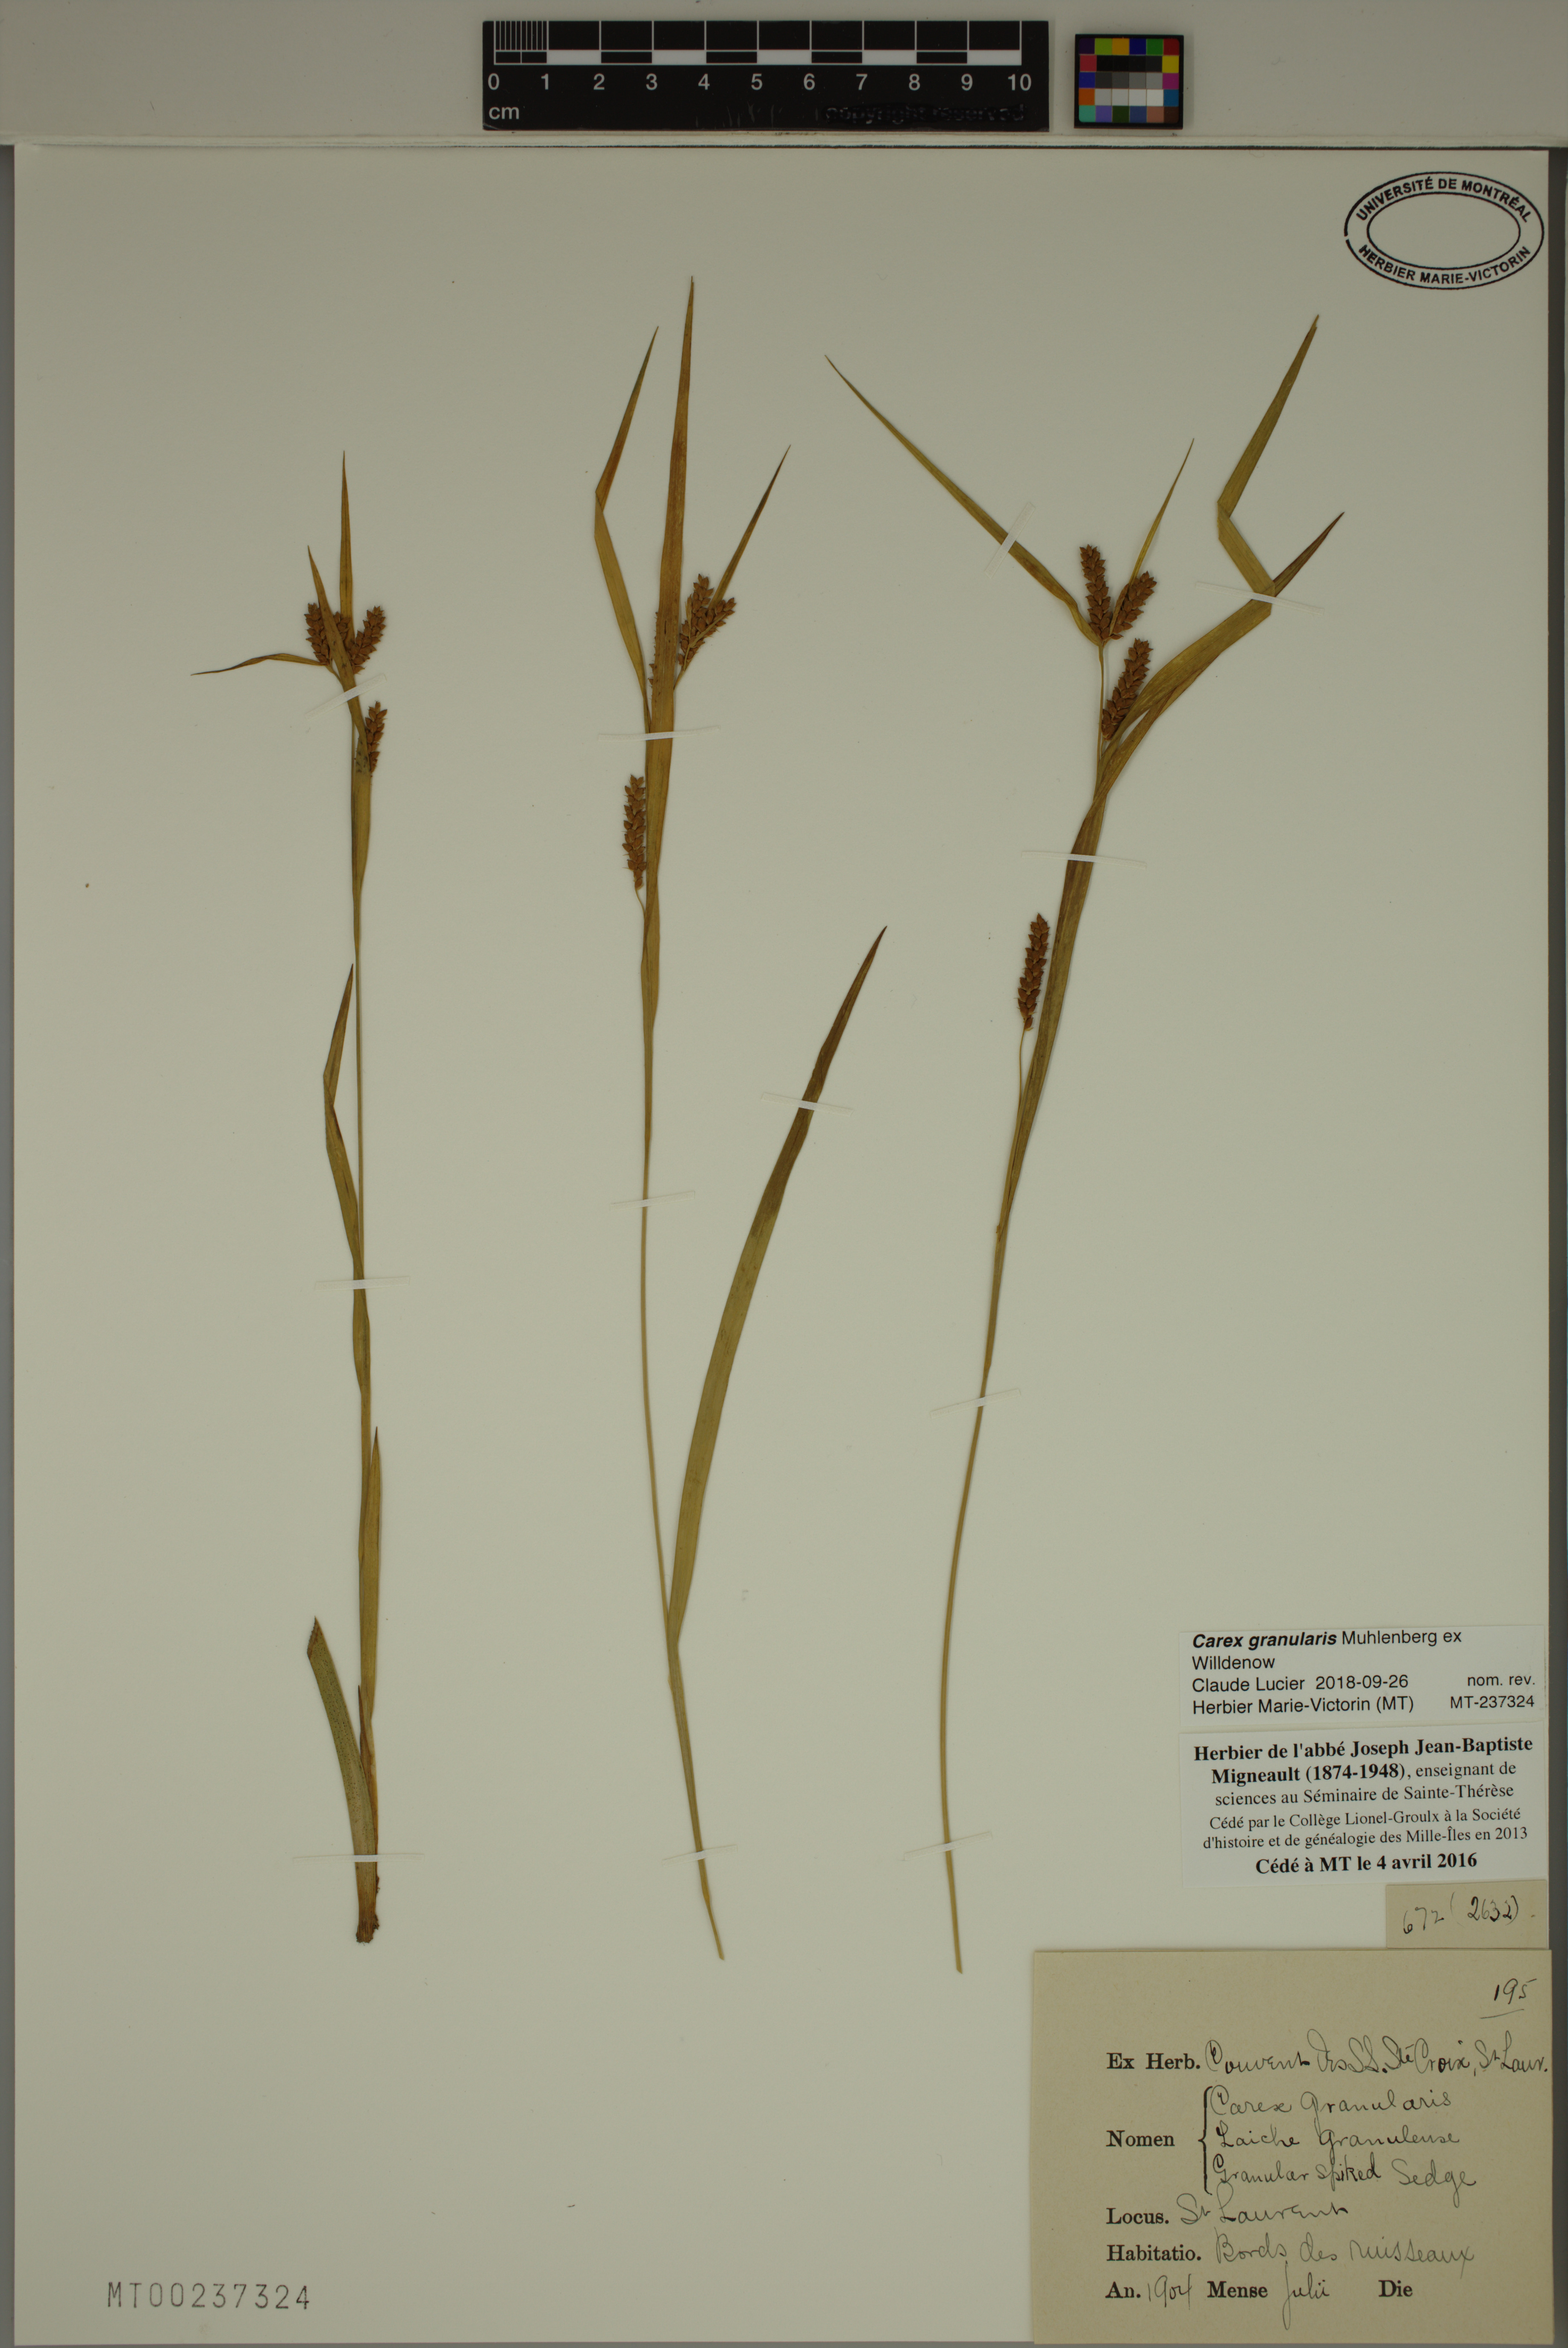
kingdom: Plantae
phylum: Tracheophyta
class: Liliopsida
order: Poales
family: Cyperaceae
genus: Carex
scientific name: Carex granularis
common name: Granular sedge
